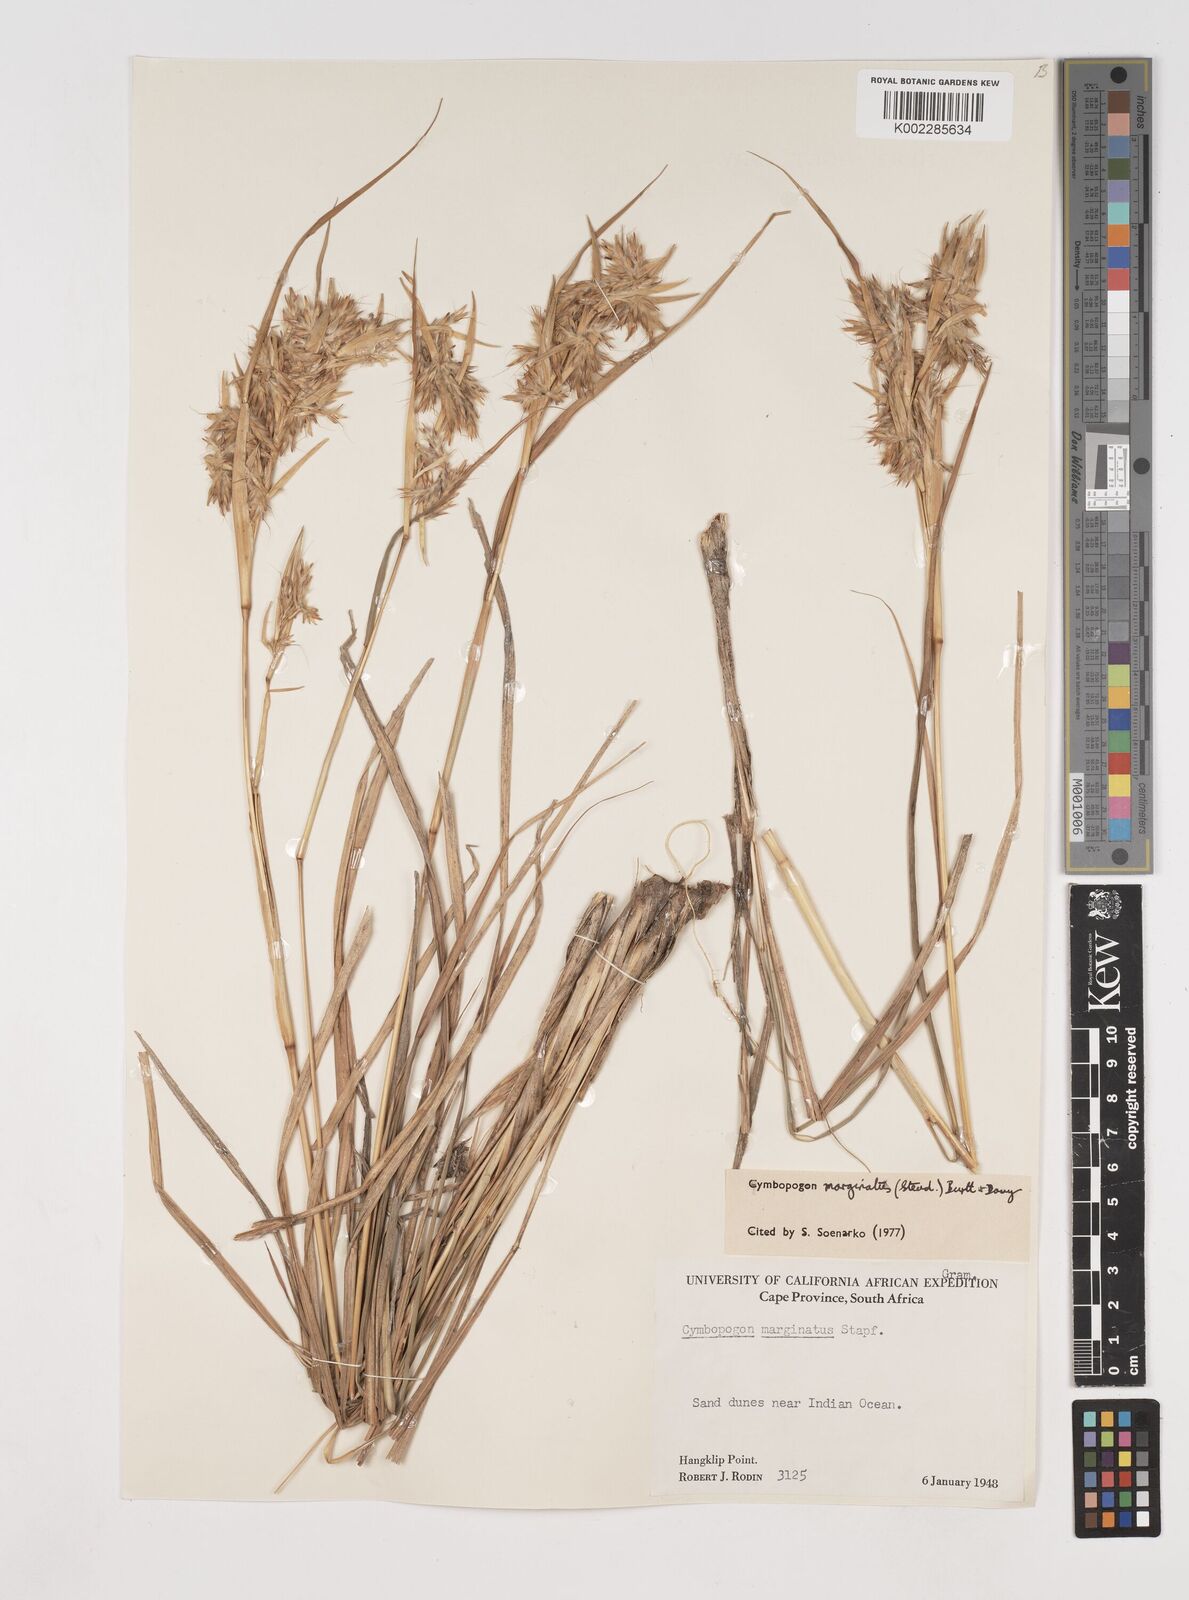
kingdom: Plantae
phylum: Tracheophyta
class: Liliopsida
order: Poales
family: Poaceae
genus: Cymbopogon
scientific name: Cymbopogon marginatus
